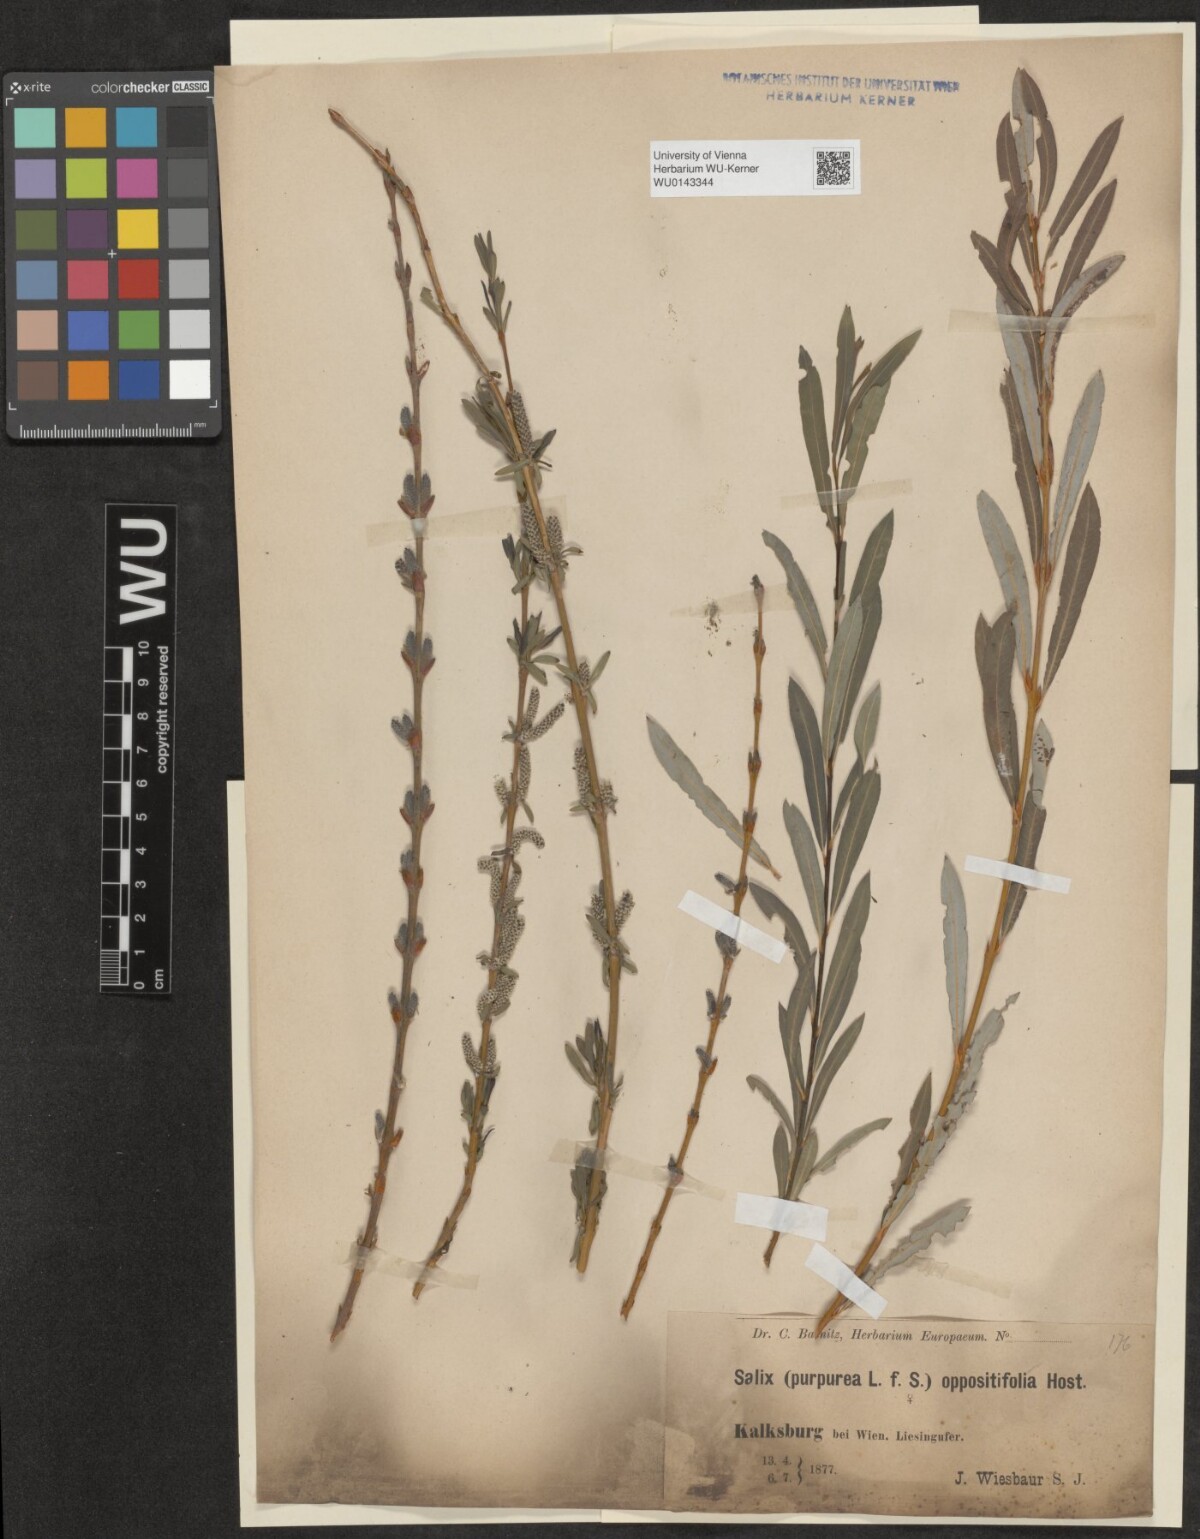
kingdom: Plantae
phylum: Tracheophyta
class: Magnoliopsida
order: Malpighiales
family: Salicaceae
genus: Salix
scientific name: Salix purpurea
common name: Purple willow
